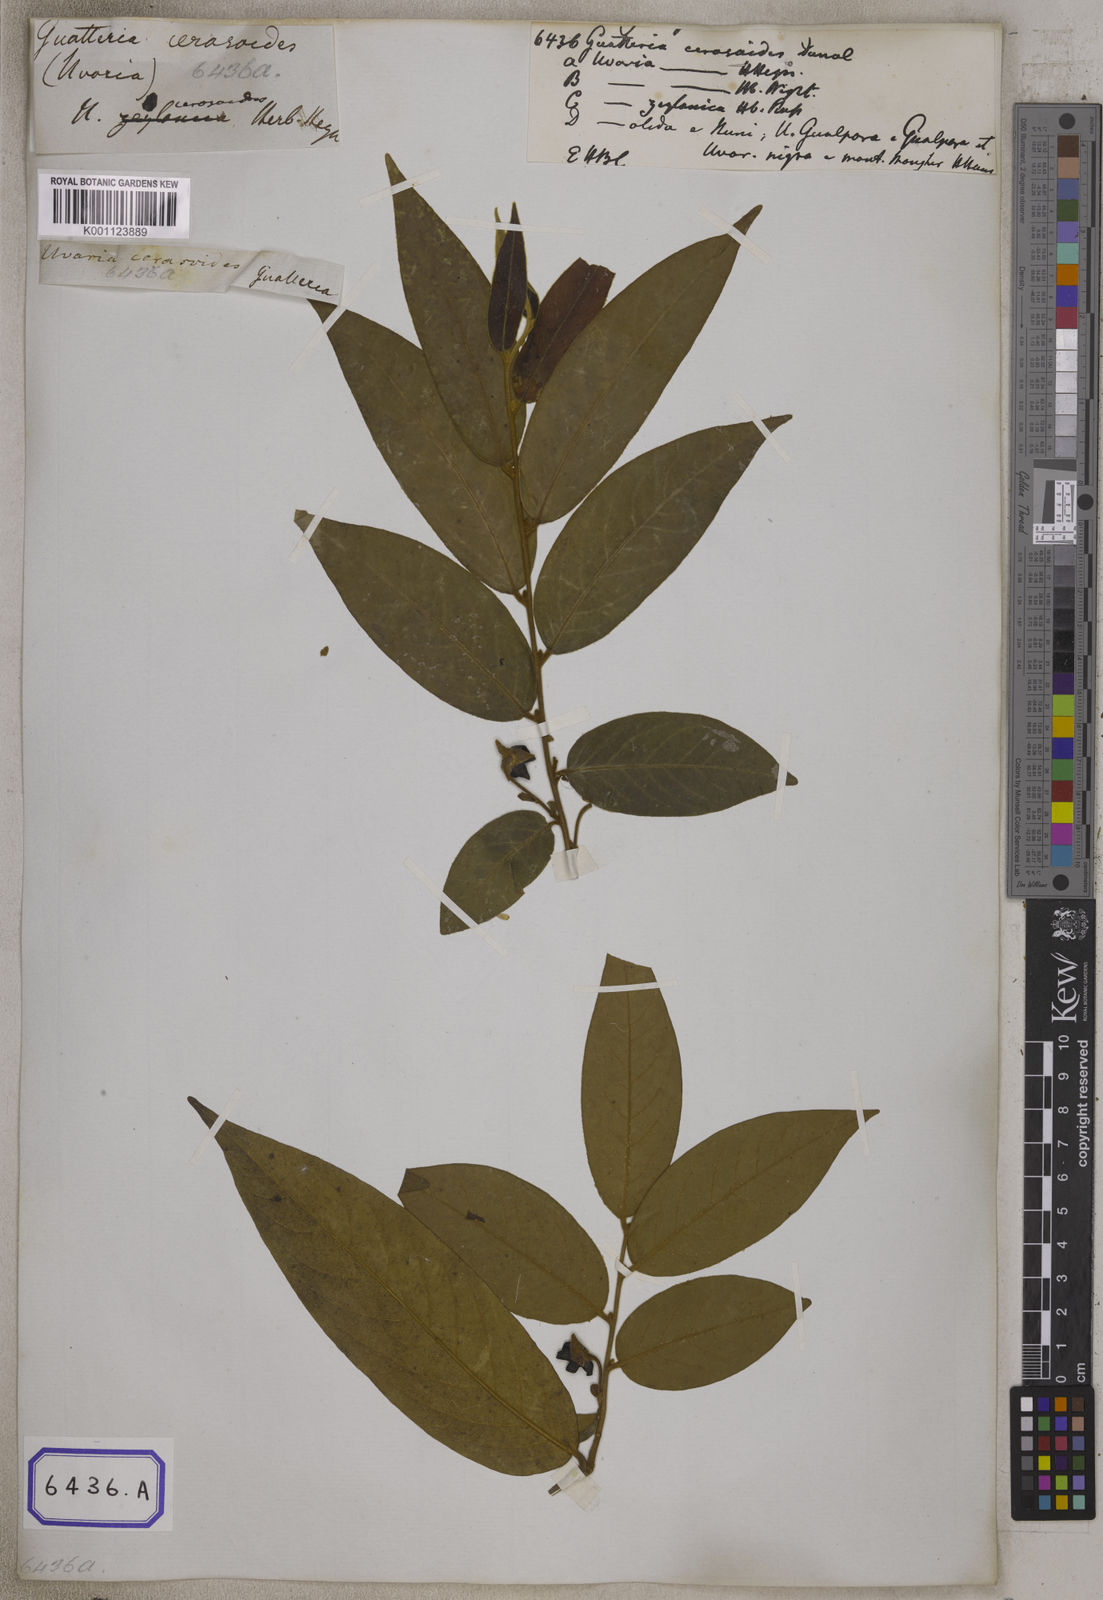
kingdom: Plantae
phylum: Tracheophyta
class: Magnoliopsida
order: Magnoliales
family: Annonaceae
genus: Hubera
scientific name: Hubera cerasoides
